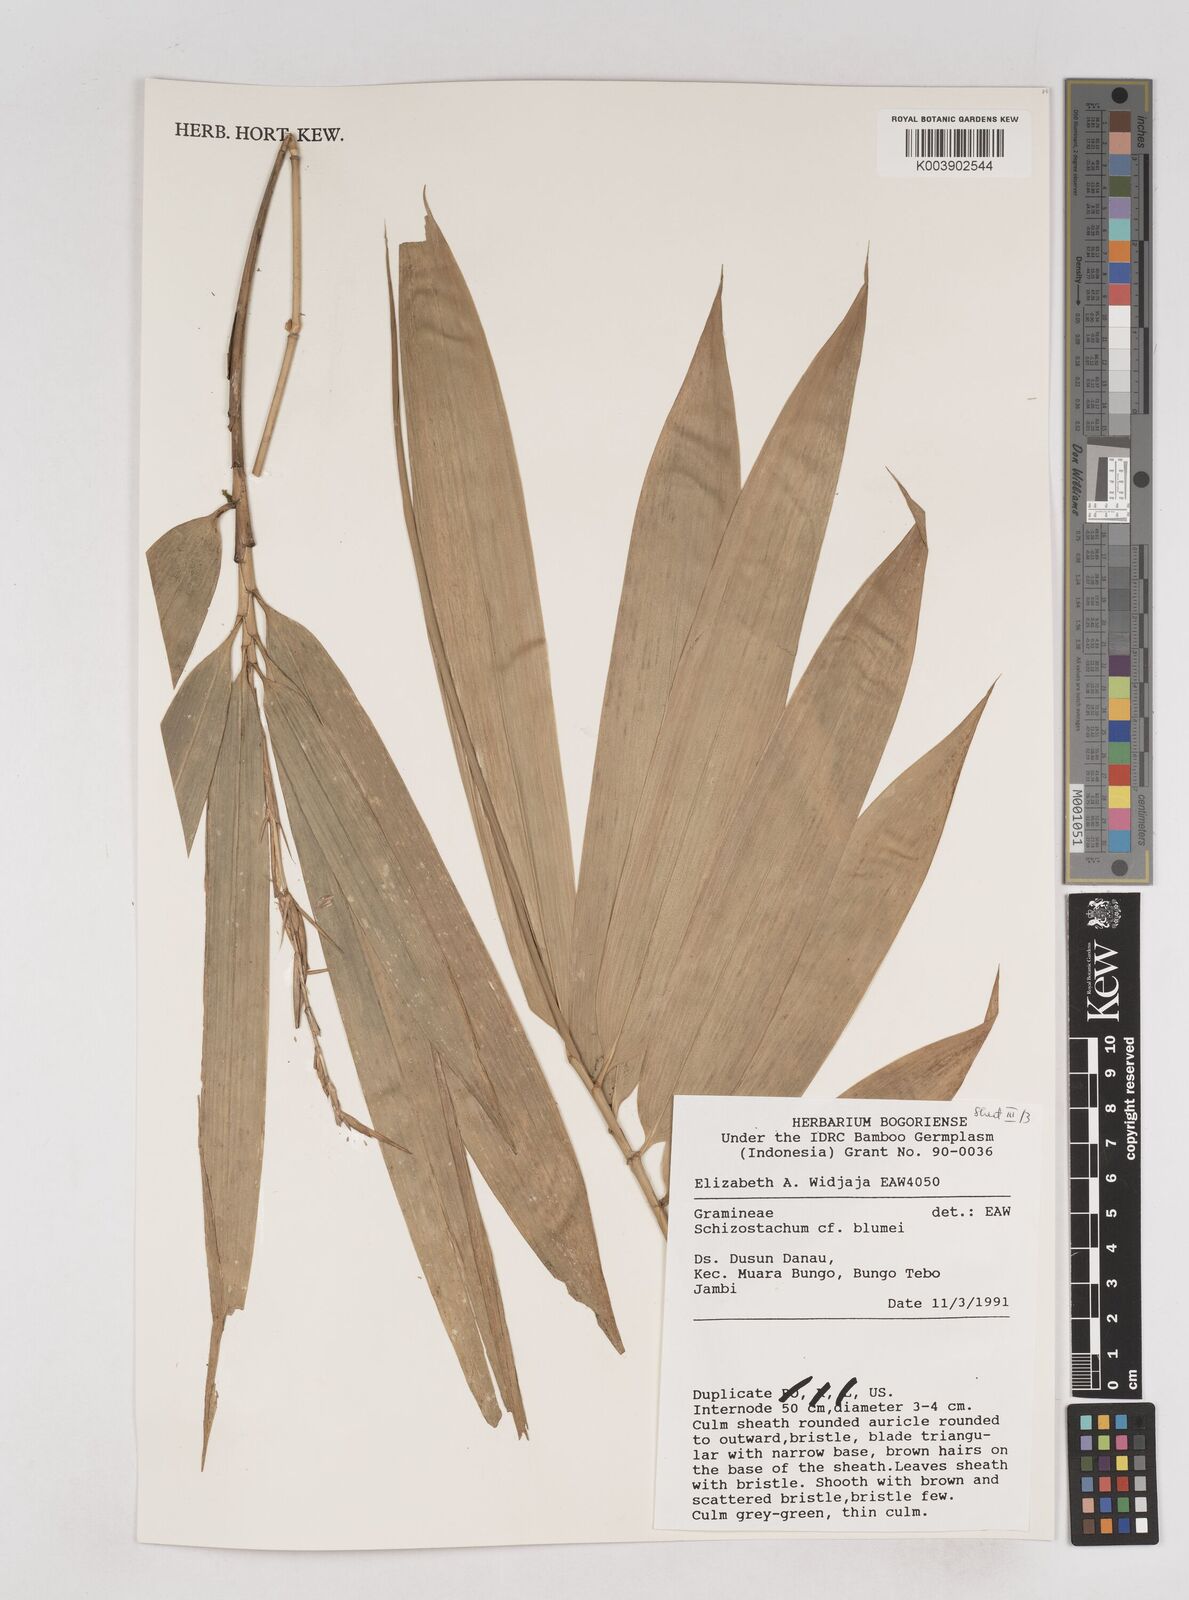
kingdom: Plantae
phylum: Tracheophyta
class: Liliopsida
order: Poales
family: Poaceae
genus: Schizostachyum
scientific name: Schizostachyum blumei
